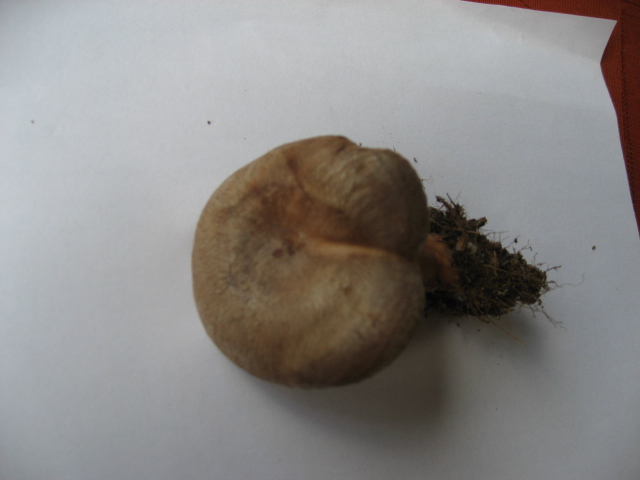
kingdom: Fungi
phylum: Basidiomycota
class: Agaricomycetes
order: Russulales
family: Russulaceae
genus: Lactarius
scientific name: Lactarius pyrogalus
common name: hassel-mælkehat
